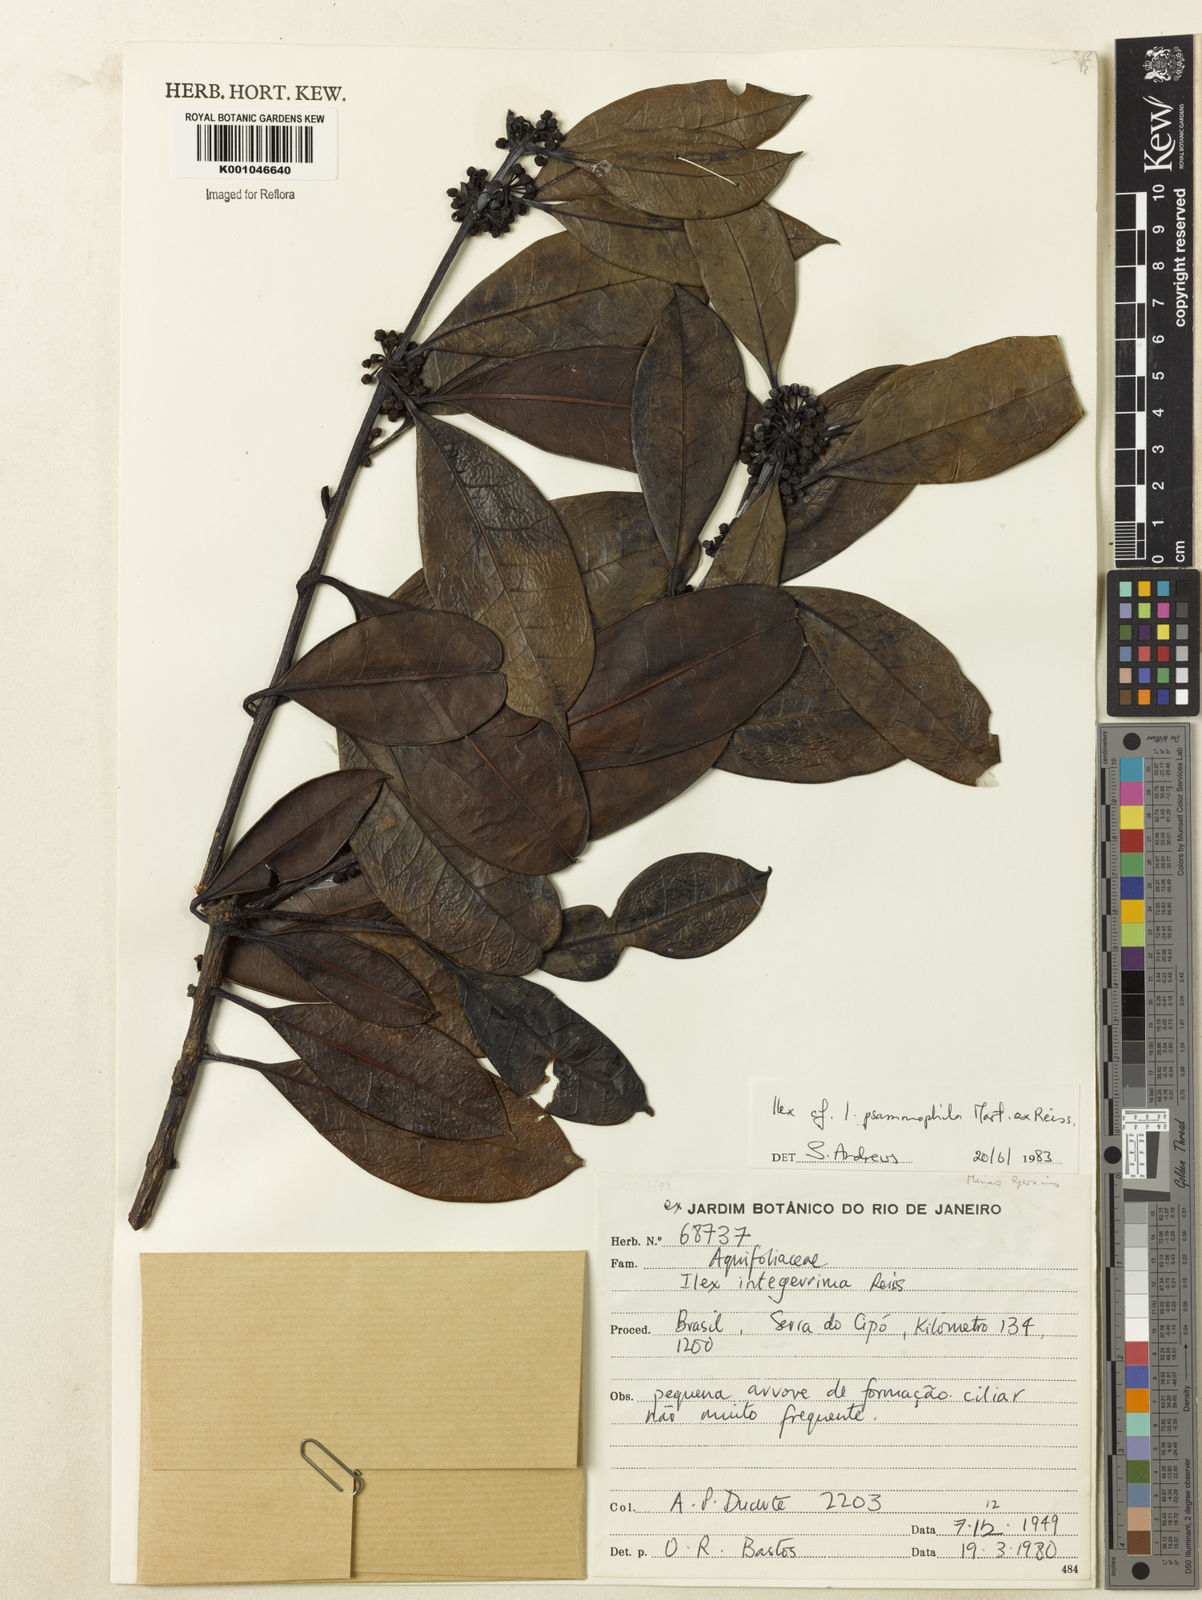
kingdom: Plantae
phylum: Tracheophyta
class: Magnoliopsida
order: Aquifoliales
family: Aquifoliaceae
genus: Ilex
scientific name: Ilex psammophila
